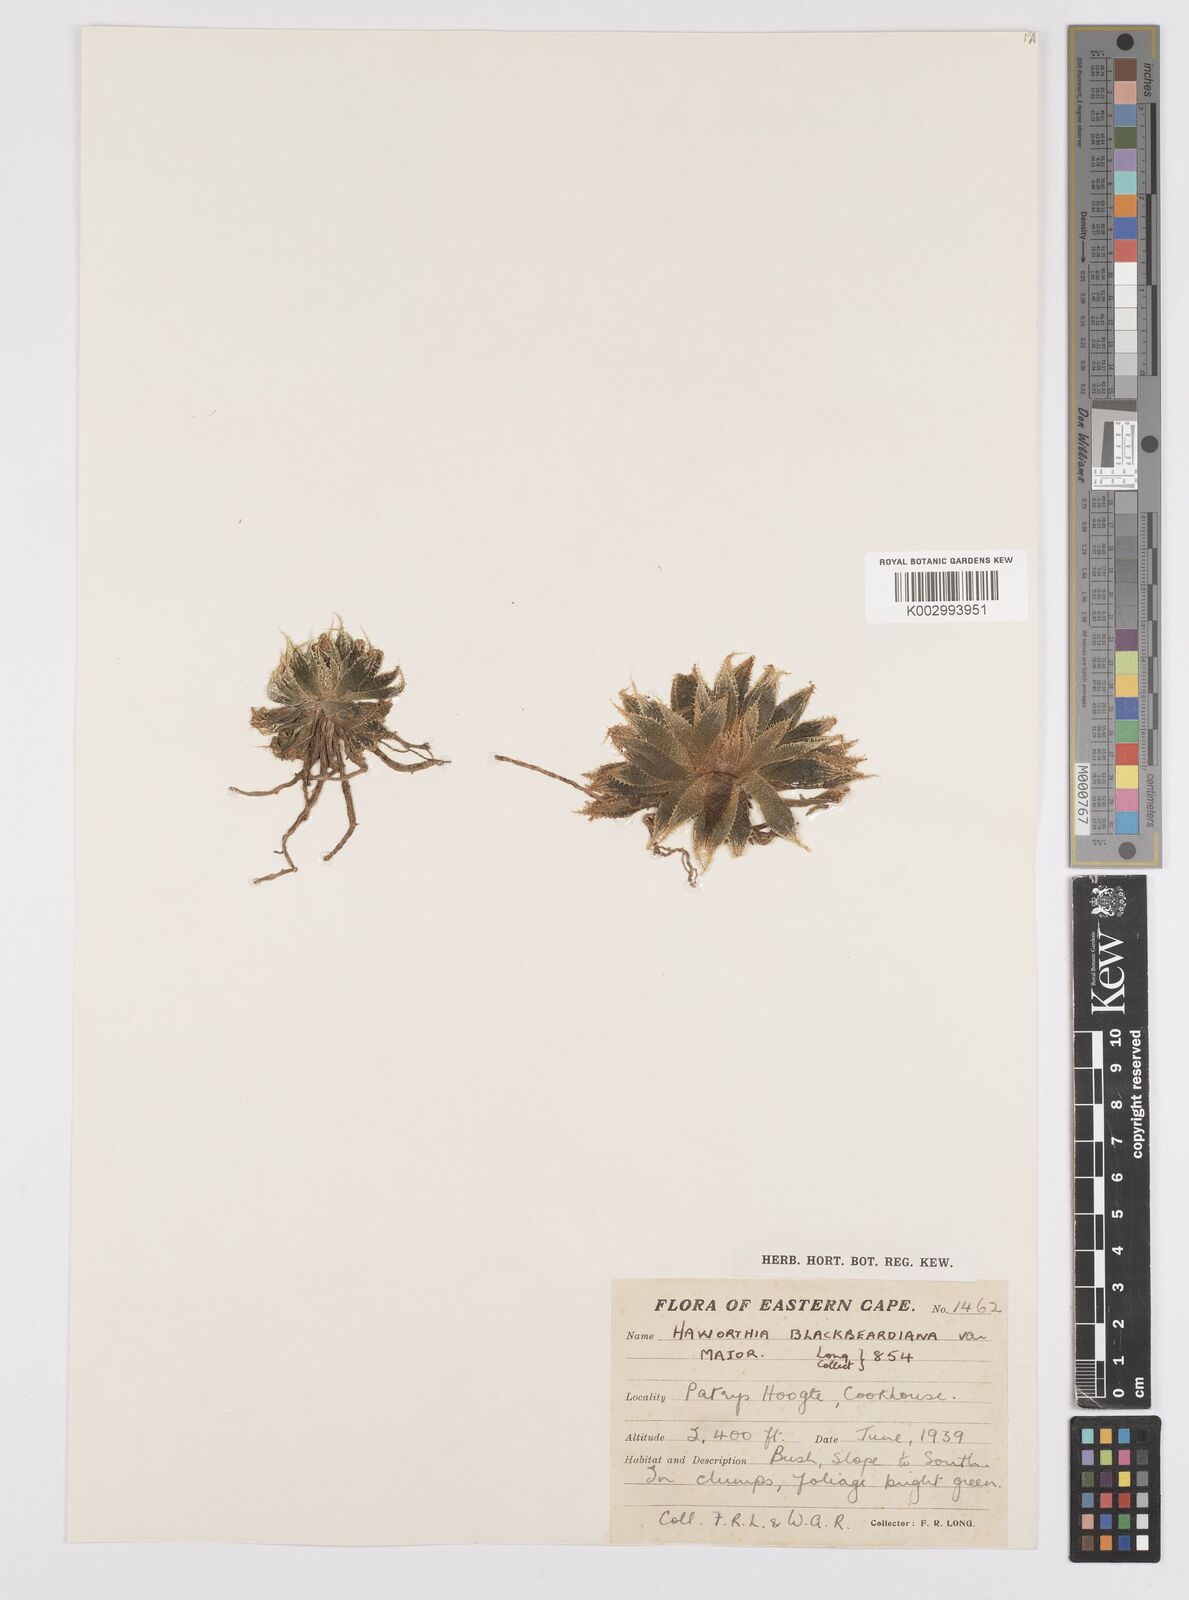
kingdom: Plantae
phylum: Tracheophyta
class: Liliopsida
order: Asparagales
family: Asphodelaceae
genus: Haworthia
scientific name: Haworthia bolusii
